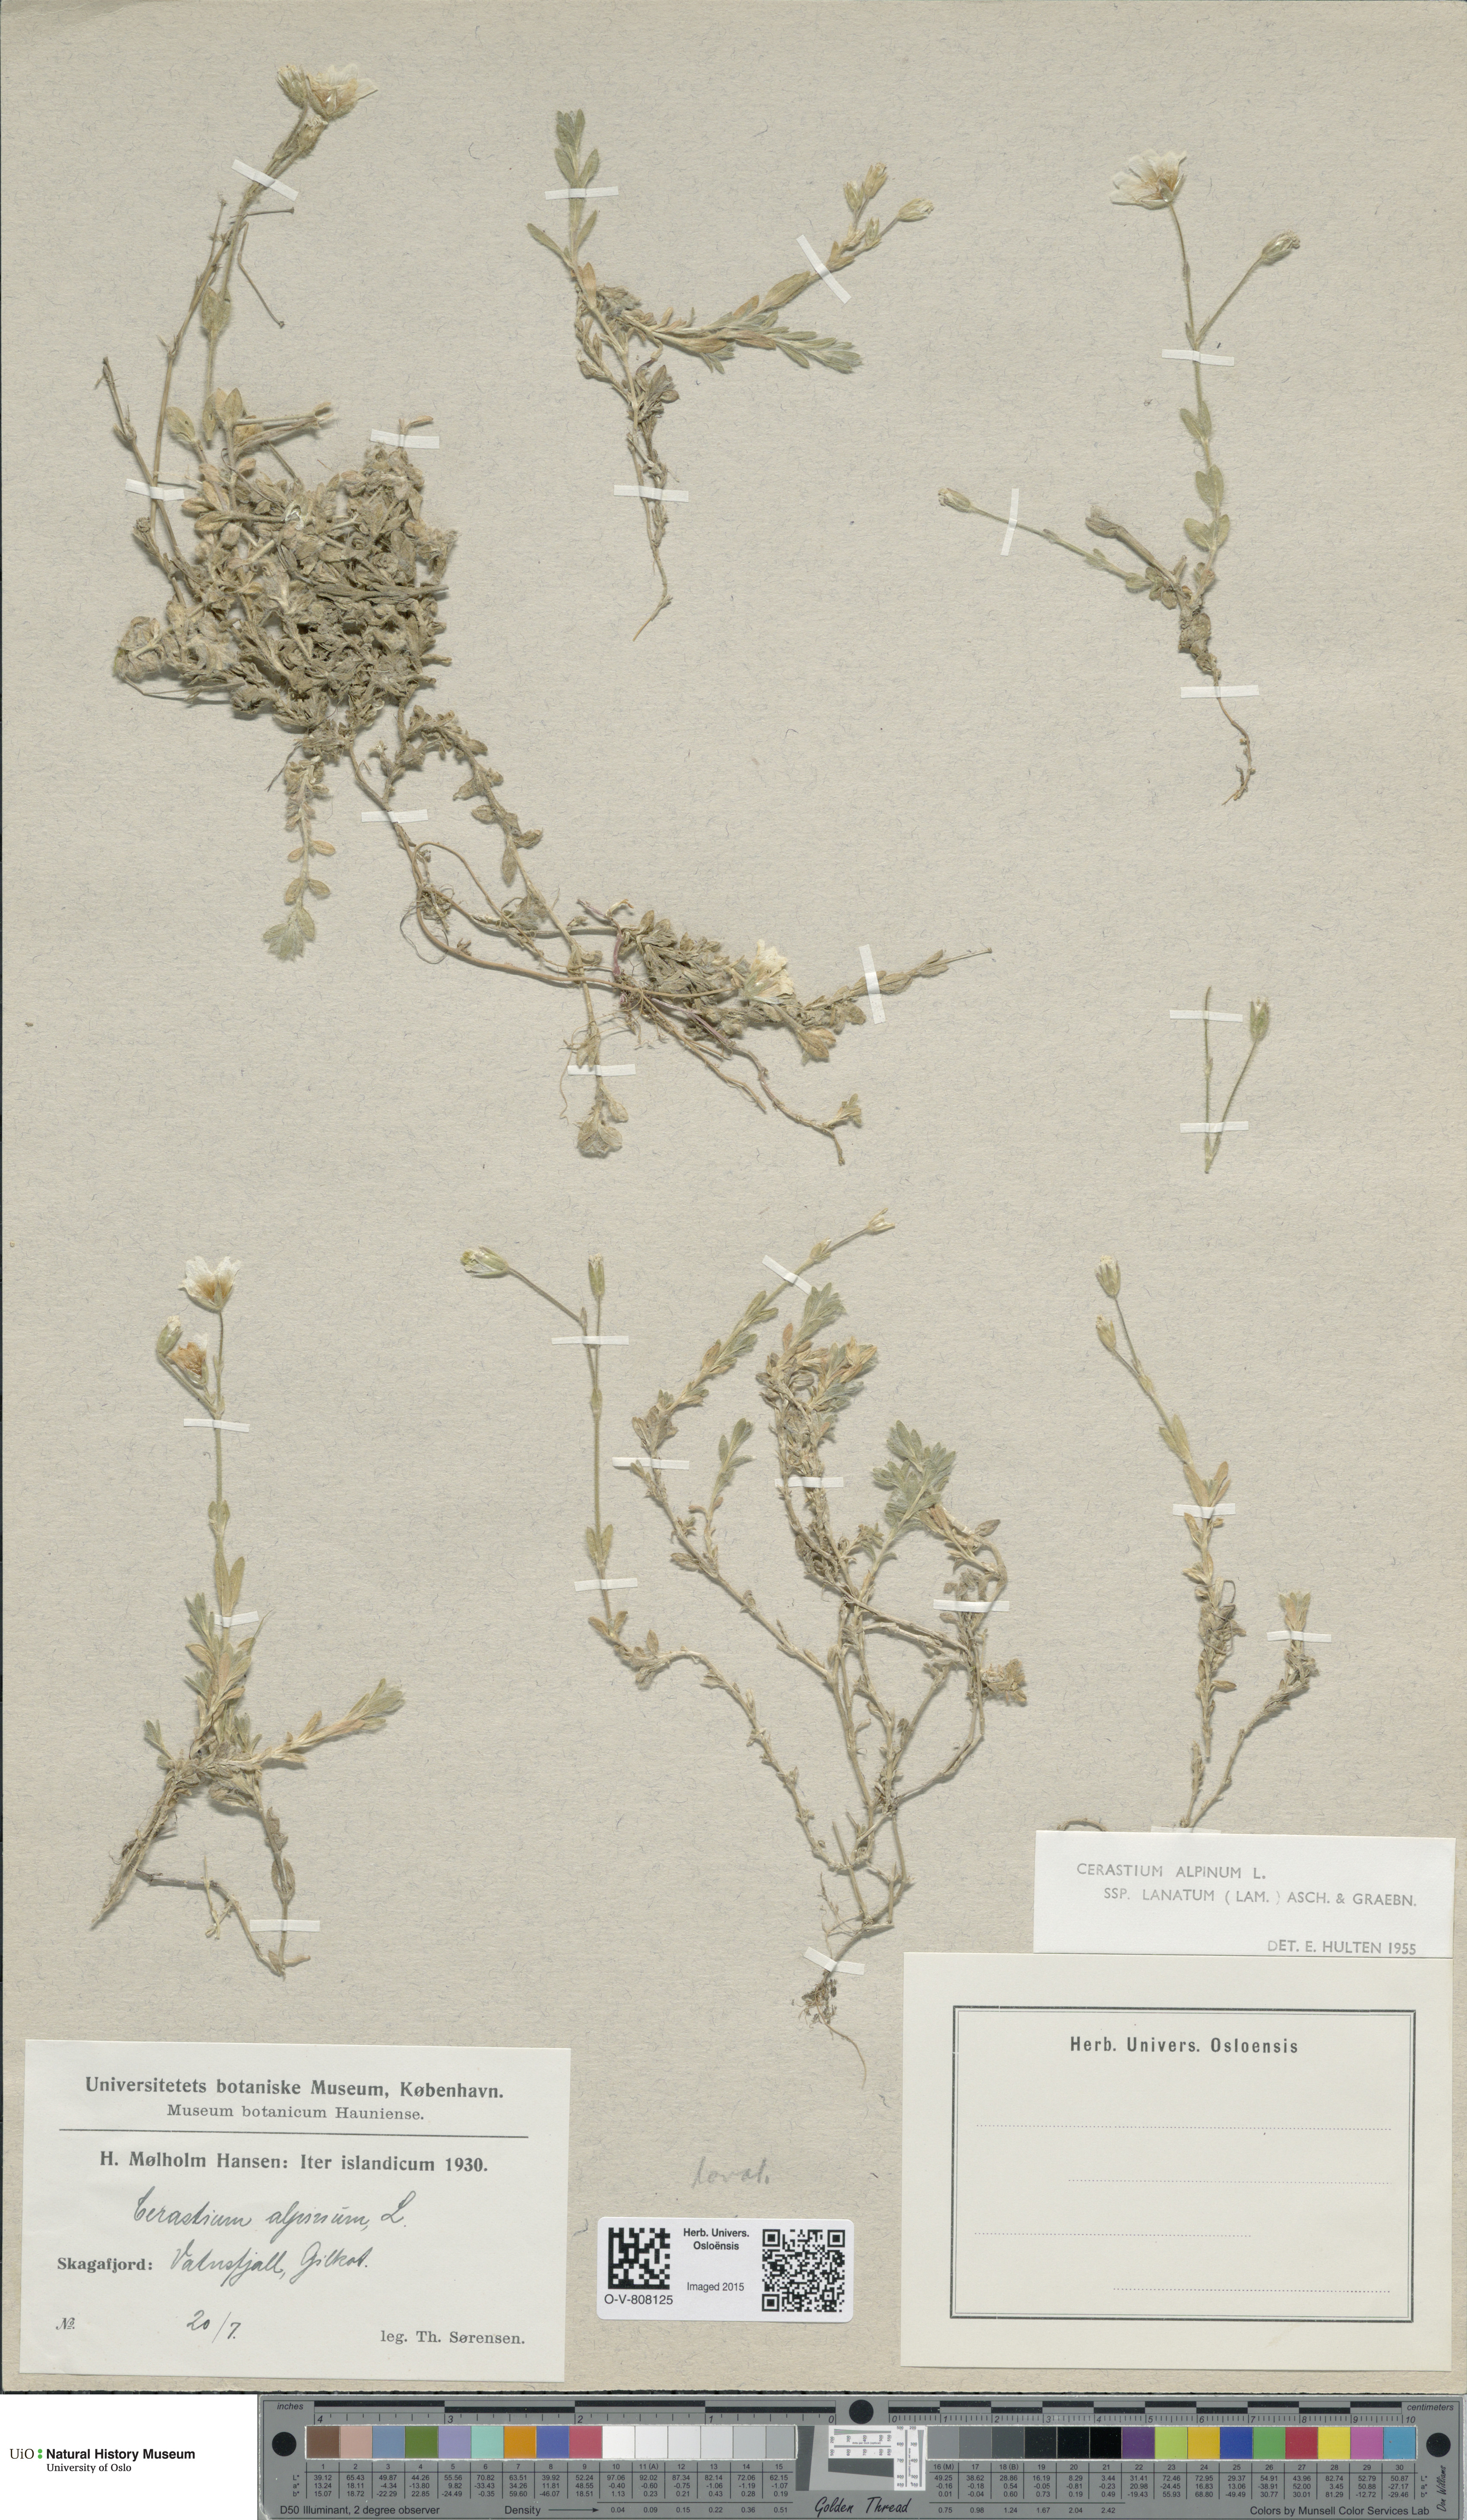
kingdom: Plantae
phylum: Tracheophyta
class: Magnoliopsida
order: Caryophyllales
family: Caryophyllaceae
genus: Cerastium
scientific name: Cerastium alpinum
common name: Alpine mouse-ear
